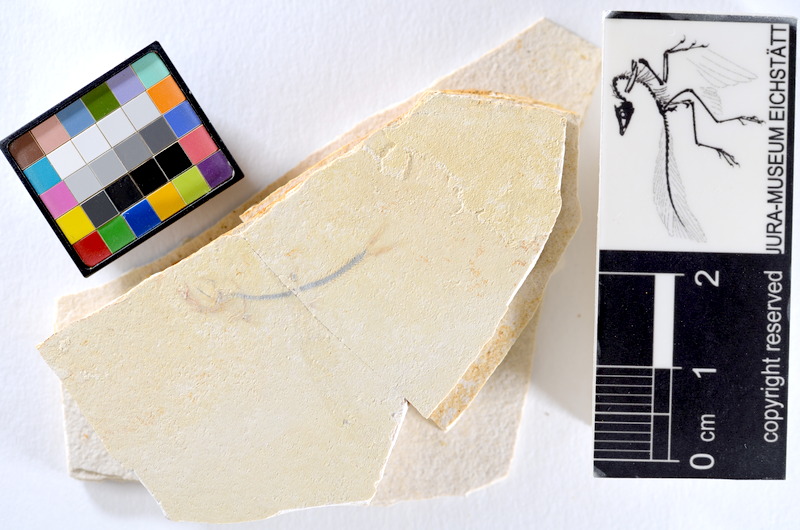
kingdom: Animalia
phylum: Chordata
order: Salmoniformes
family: Orthogonikleithridae
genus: Orthogonikleithrus
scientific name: Orthogonikleithrus hoelli
